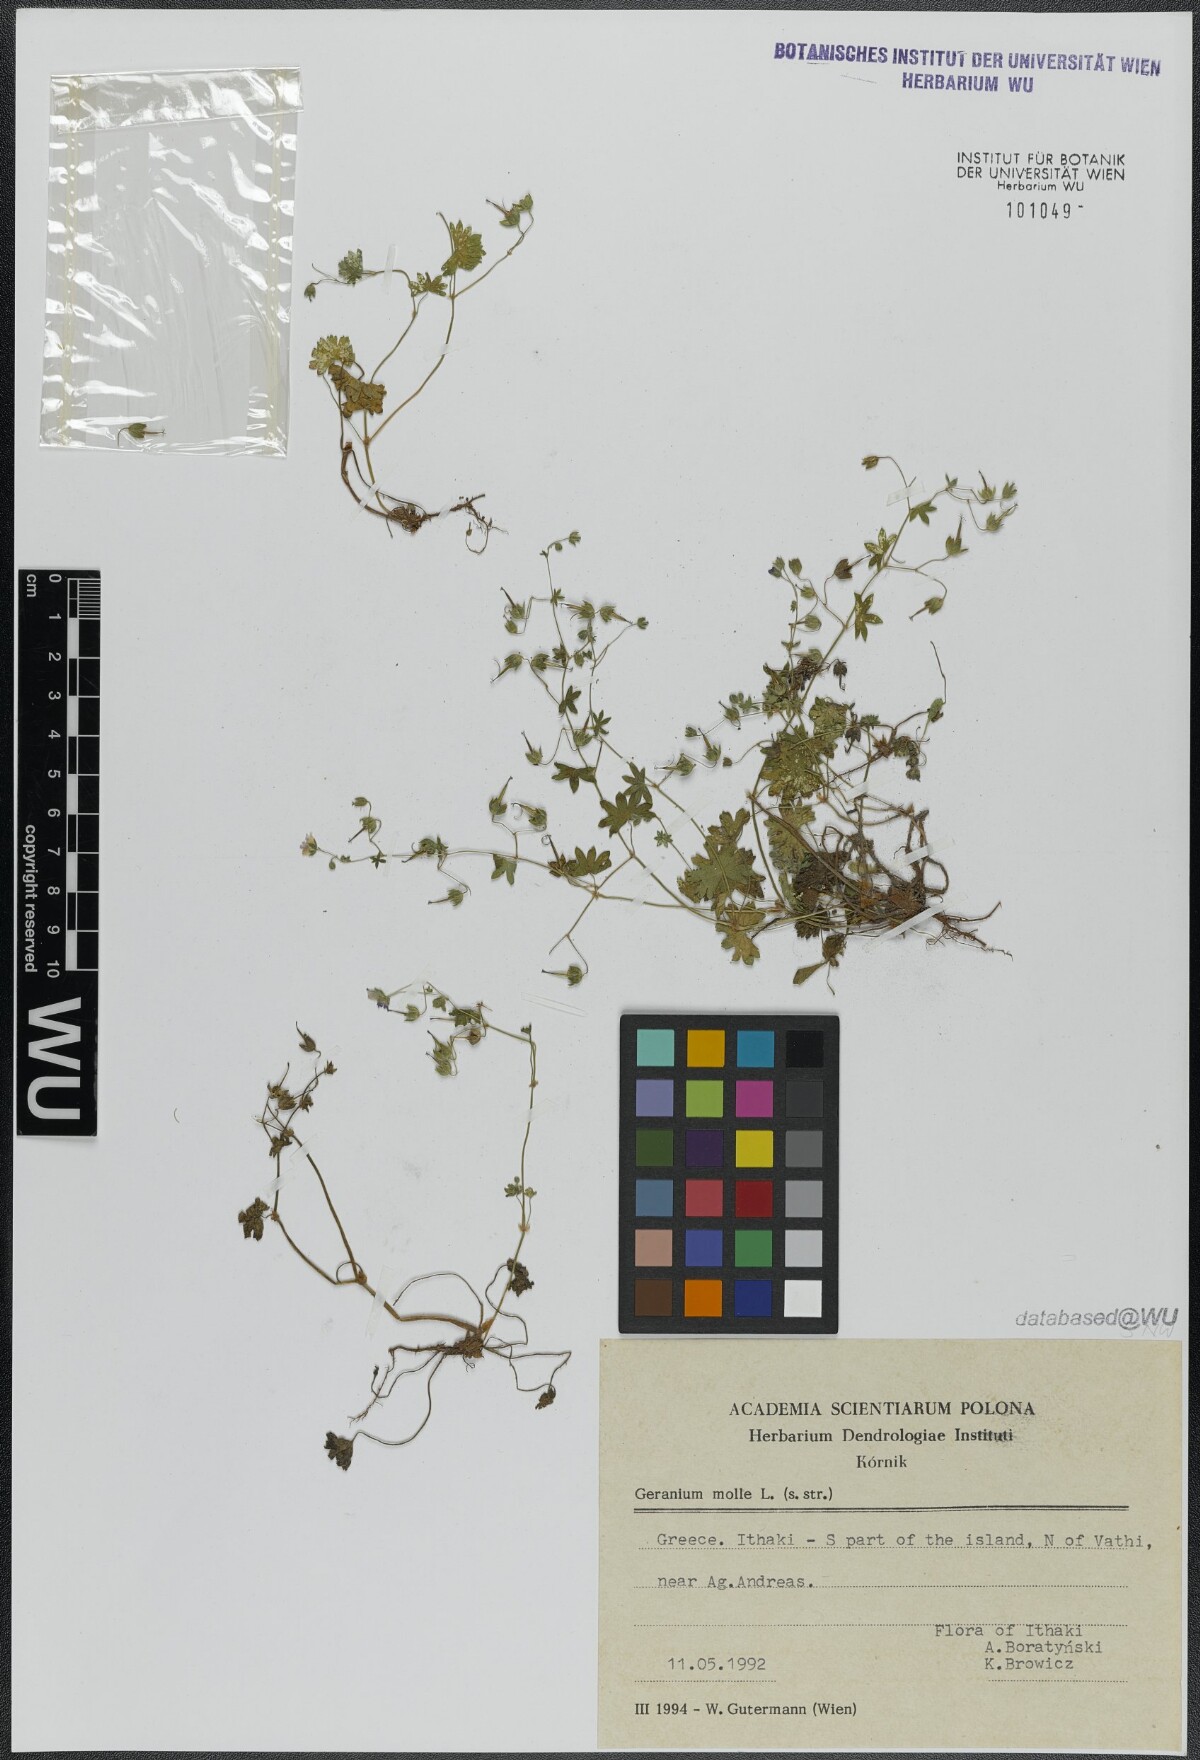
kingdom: Plantae
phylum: Tracheophyta
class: Magnoliopsida
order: Geraniales
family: Geraniaceae
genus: Geranium
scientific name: Geranium molle
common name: Dove's-foot crane's-bill
